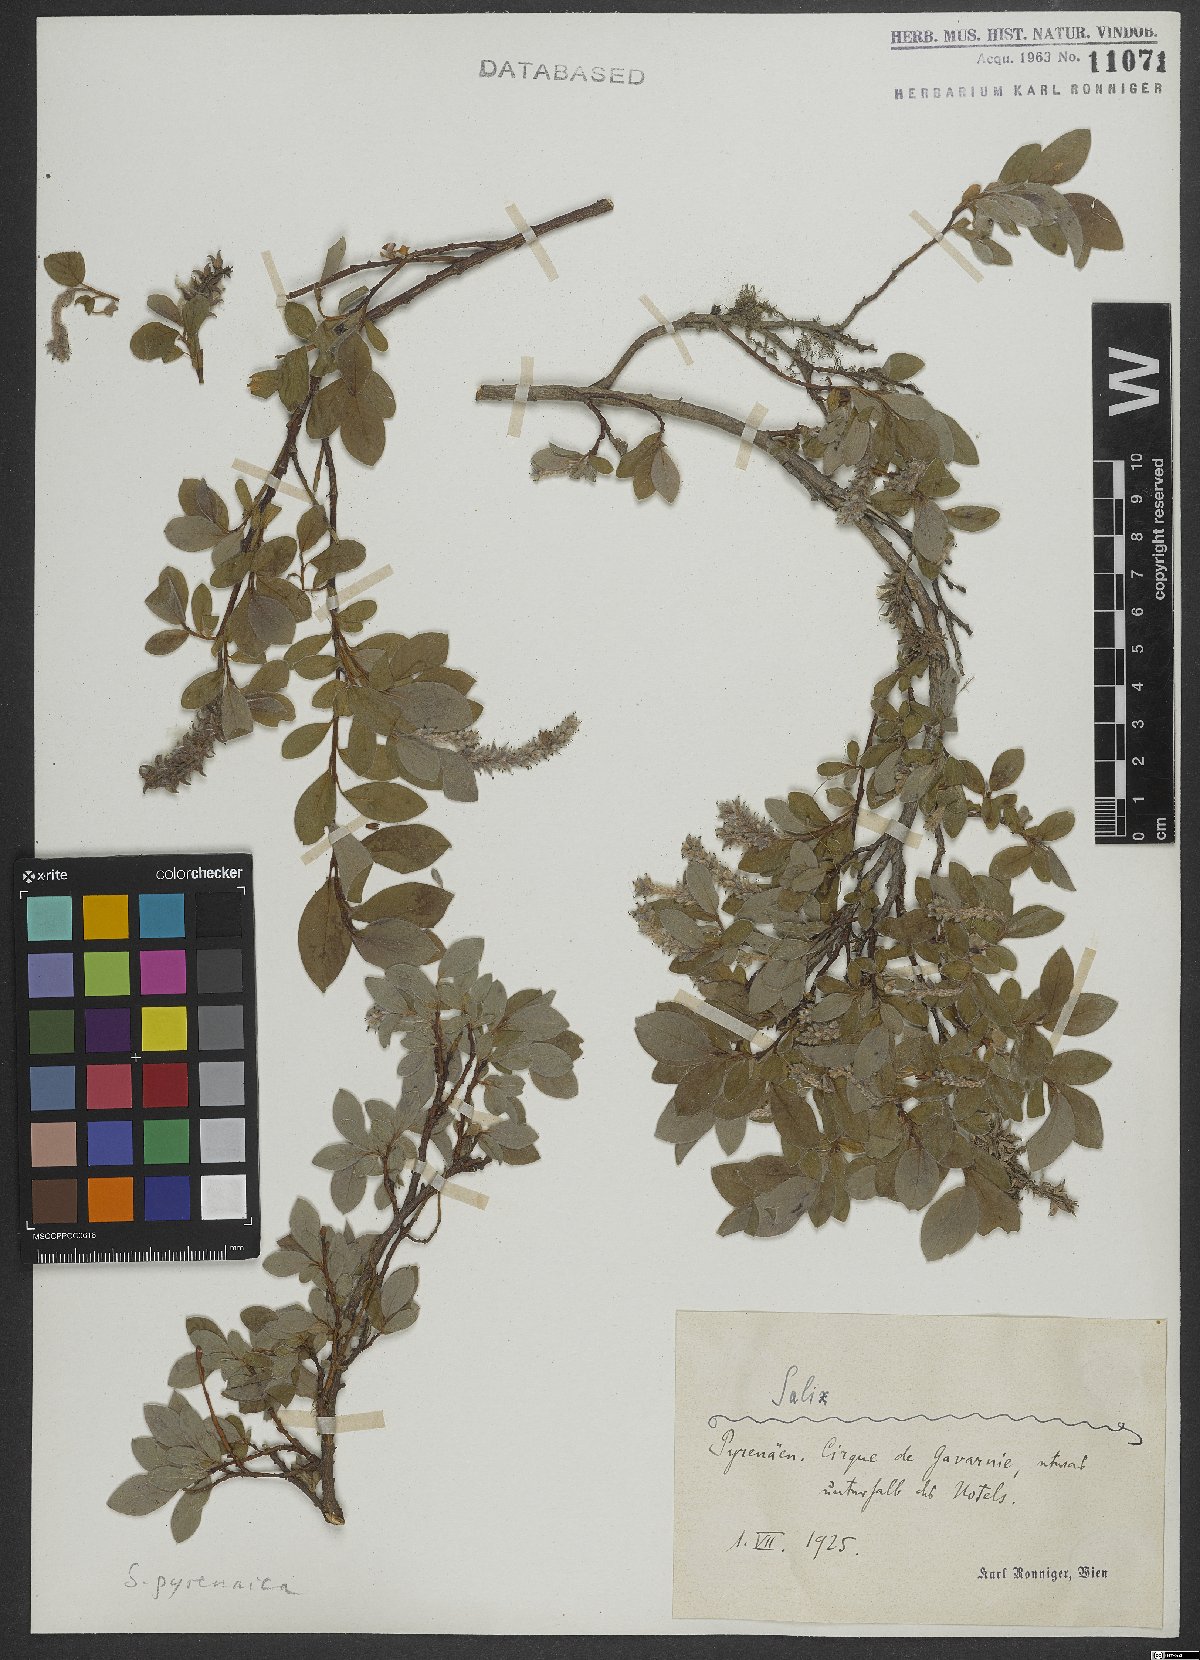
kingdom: Plantae
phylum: Tracheophyta
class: Magnoliopsida
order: Malpighiales
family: Salicaceae
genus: Salix
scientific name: Salix pyrenaica
